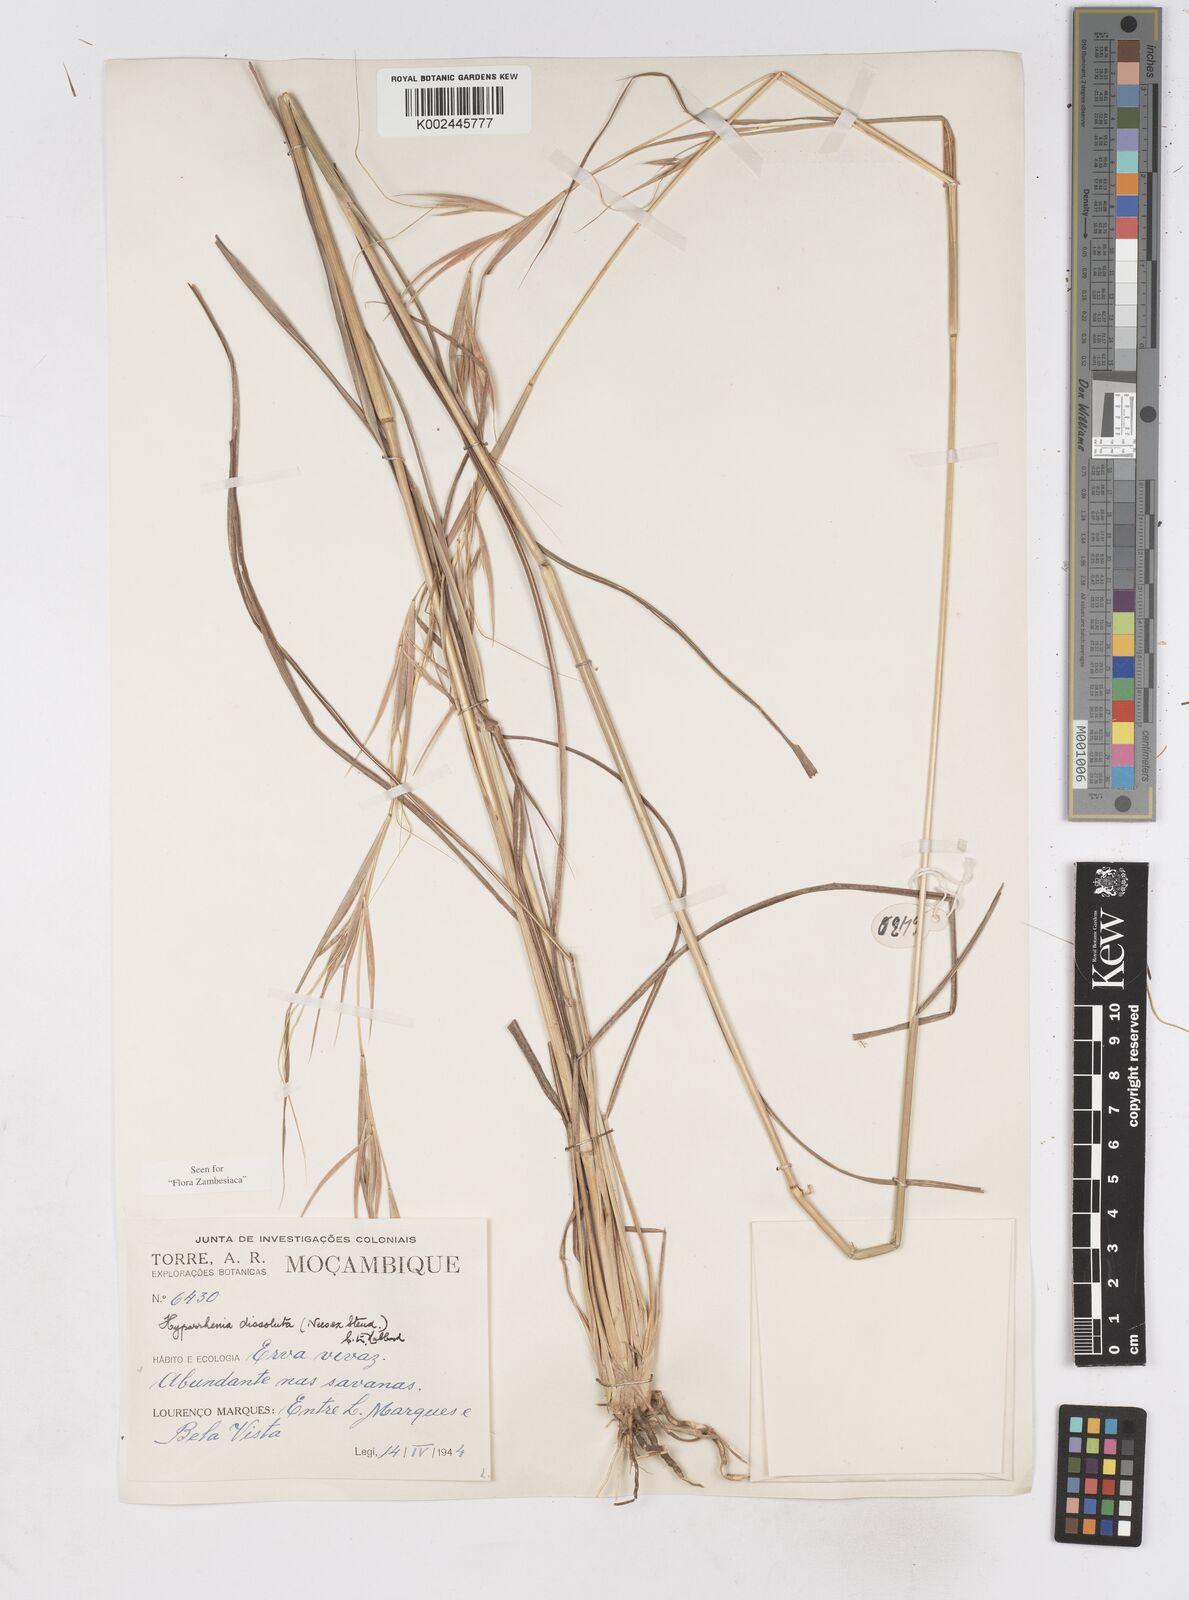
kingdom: Plantae
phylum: Tracheophyta
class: Liliopsida
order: Poales
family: Poaceae
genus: Hyperthelia
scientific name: Hyperthelia dissoluta
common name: Yellow thatching grass
